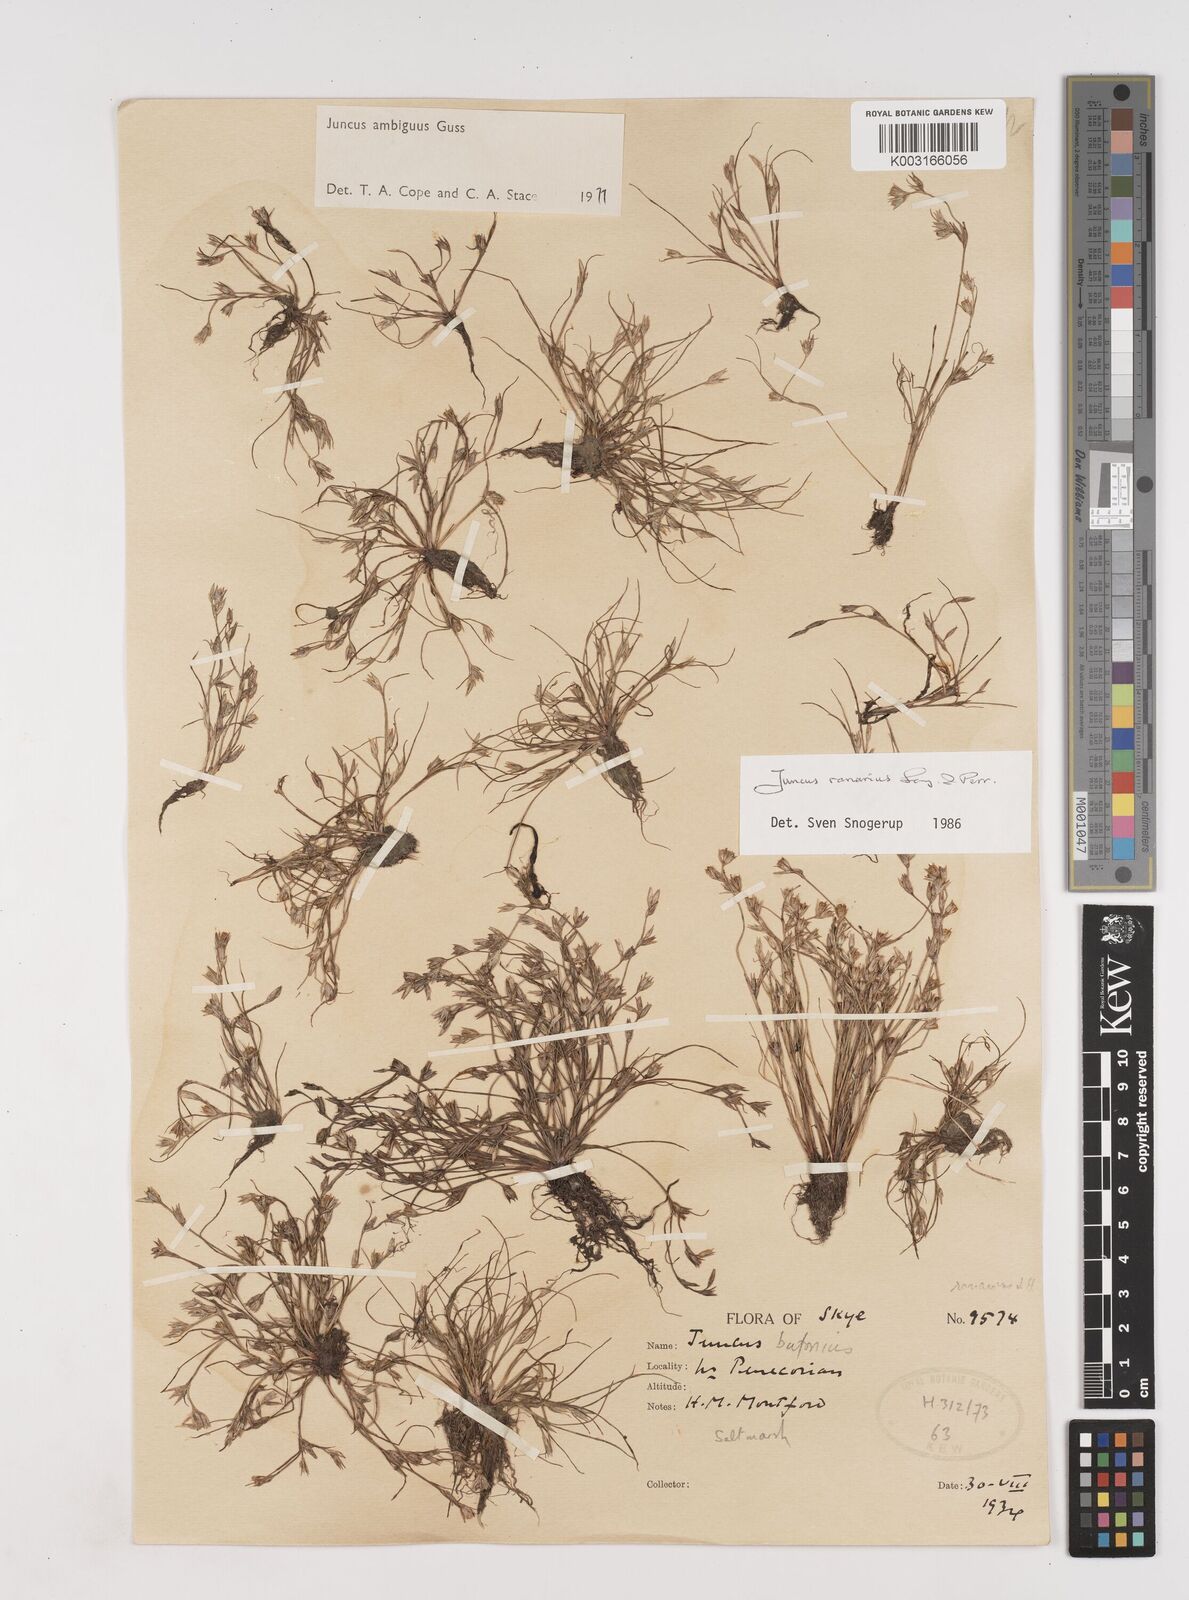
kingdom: Plantae
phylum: Tracheophyta
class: Liliopsida
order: Poales
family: Juncaceae
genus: Juncus
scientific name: Juncus hybridus
